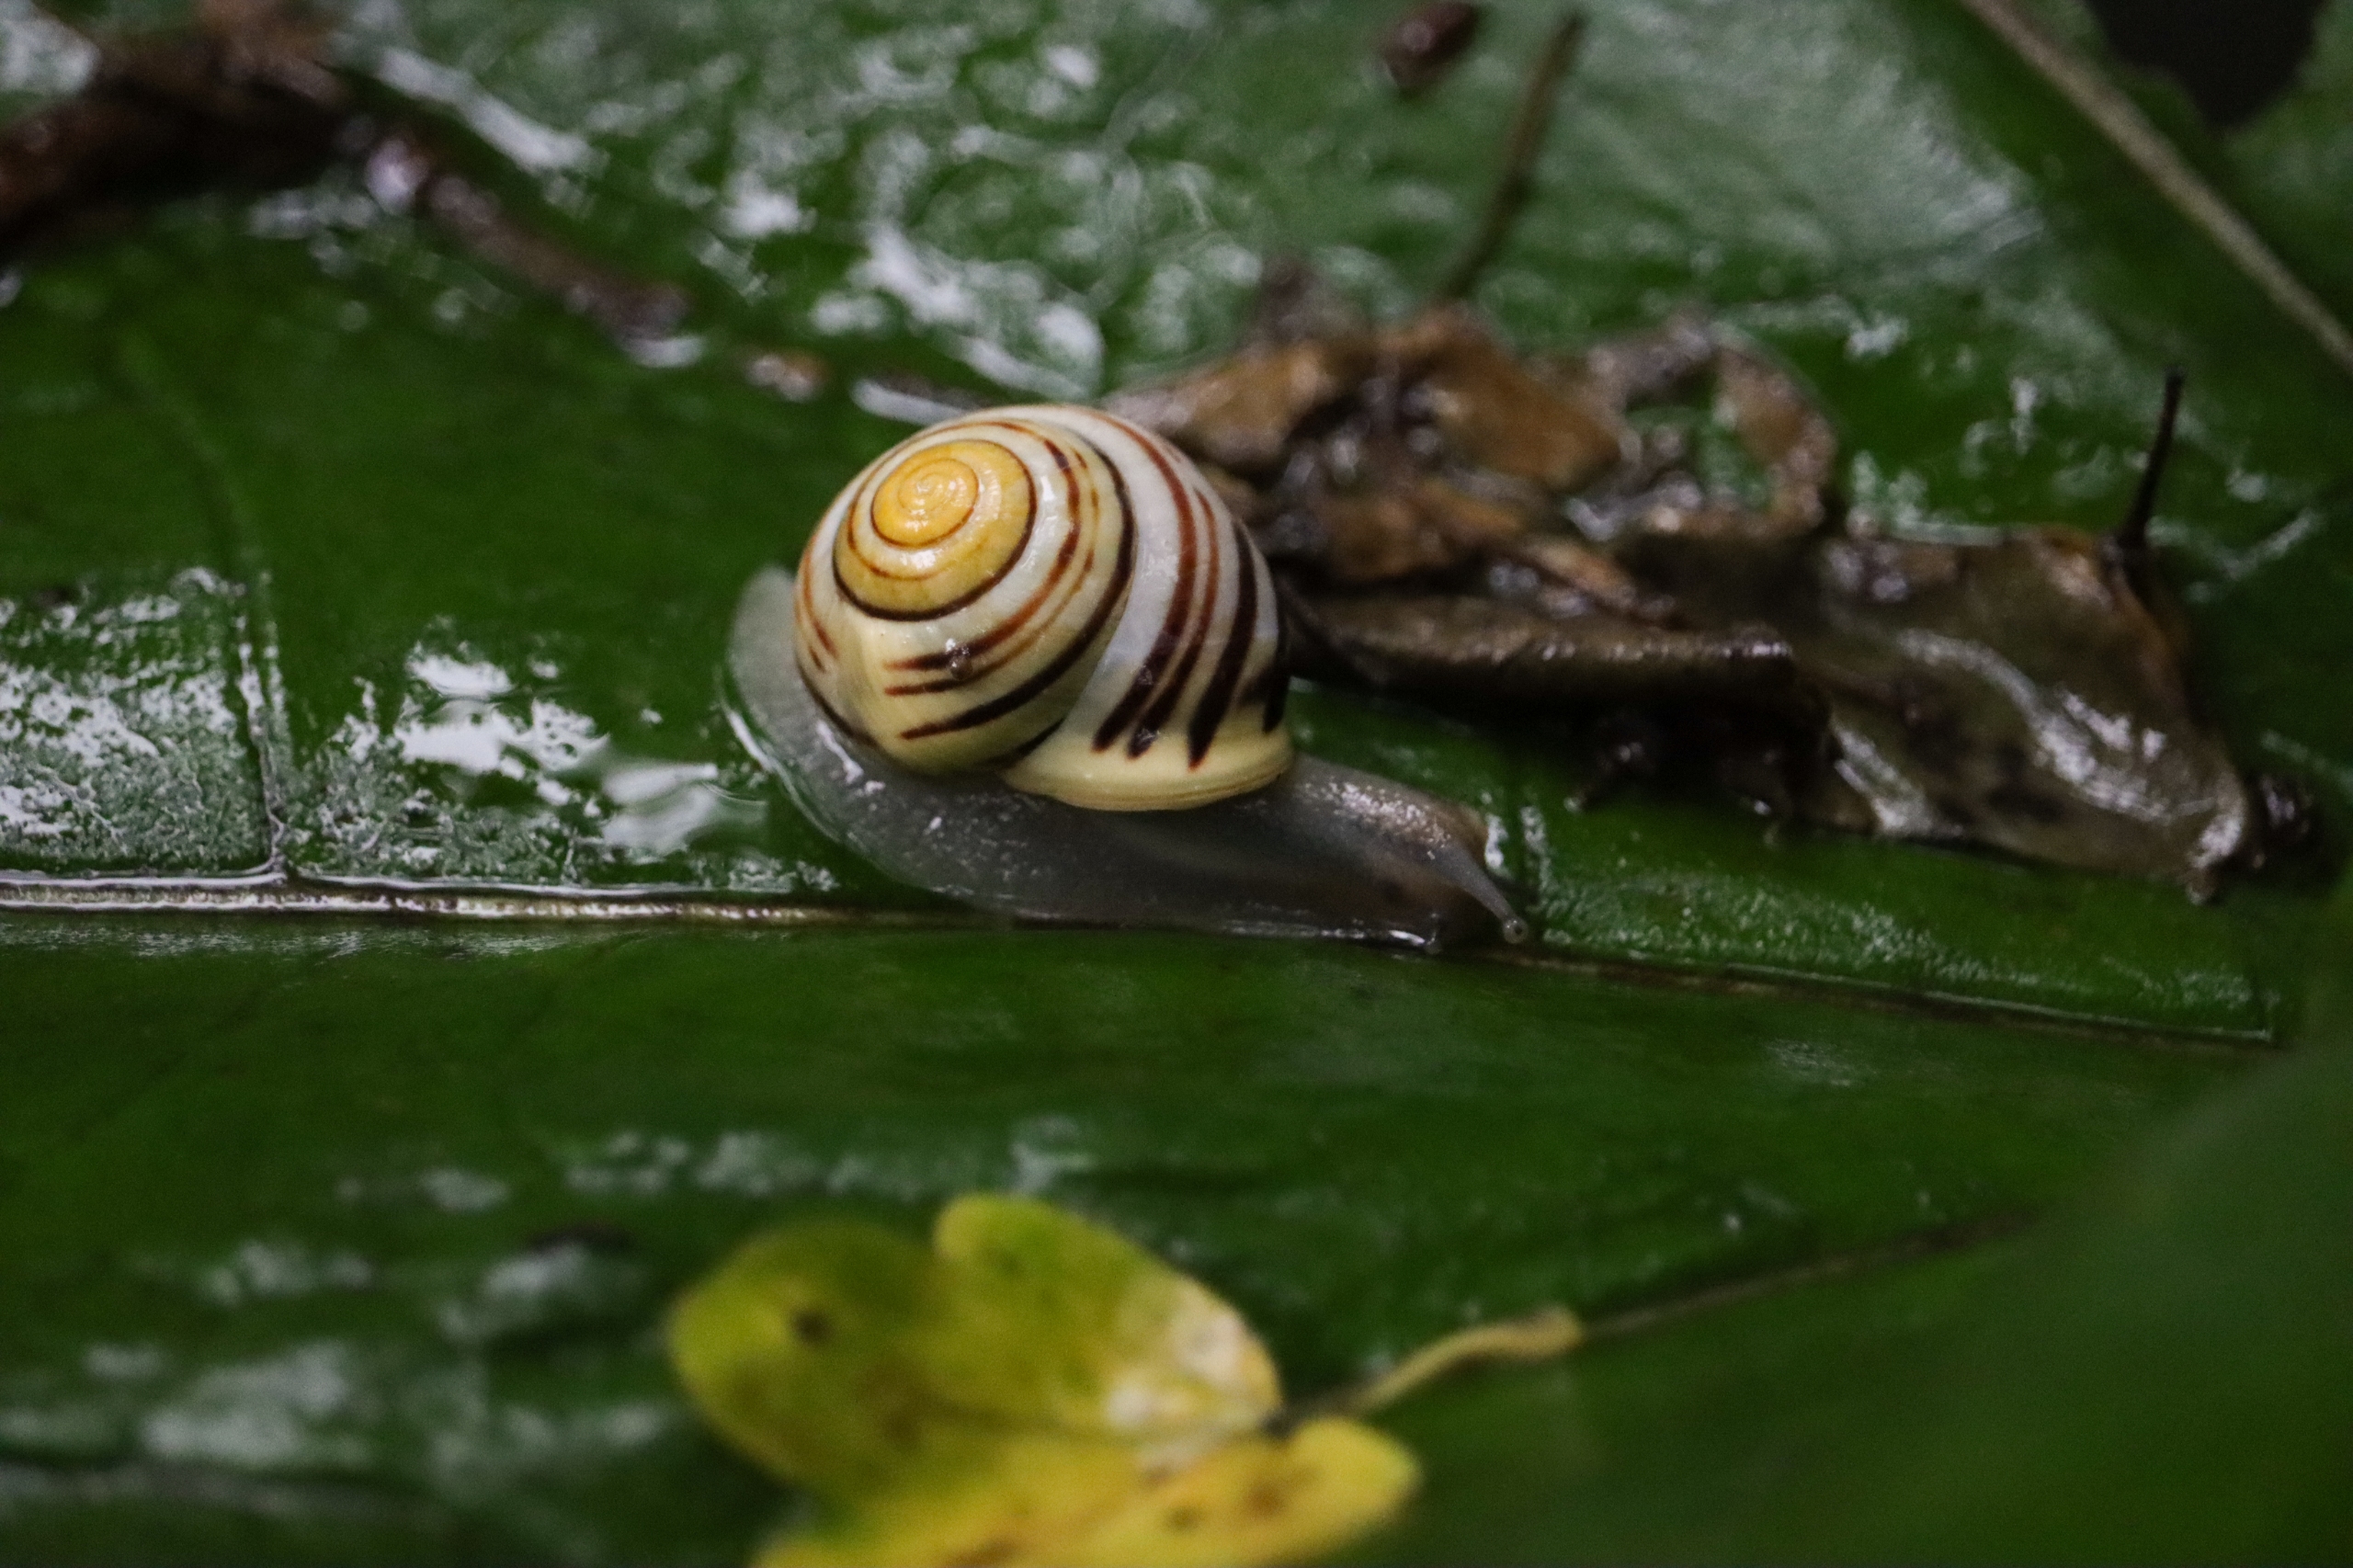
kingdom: Animalia
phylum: Mollusca
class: Gastropoda
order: Stylommatophora
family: Helicidae
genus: Cepaea
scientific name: Cepaea hortensis
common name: Havesnegl
